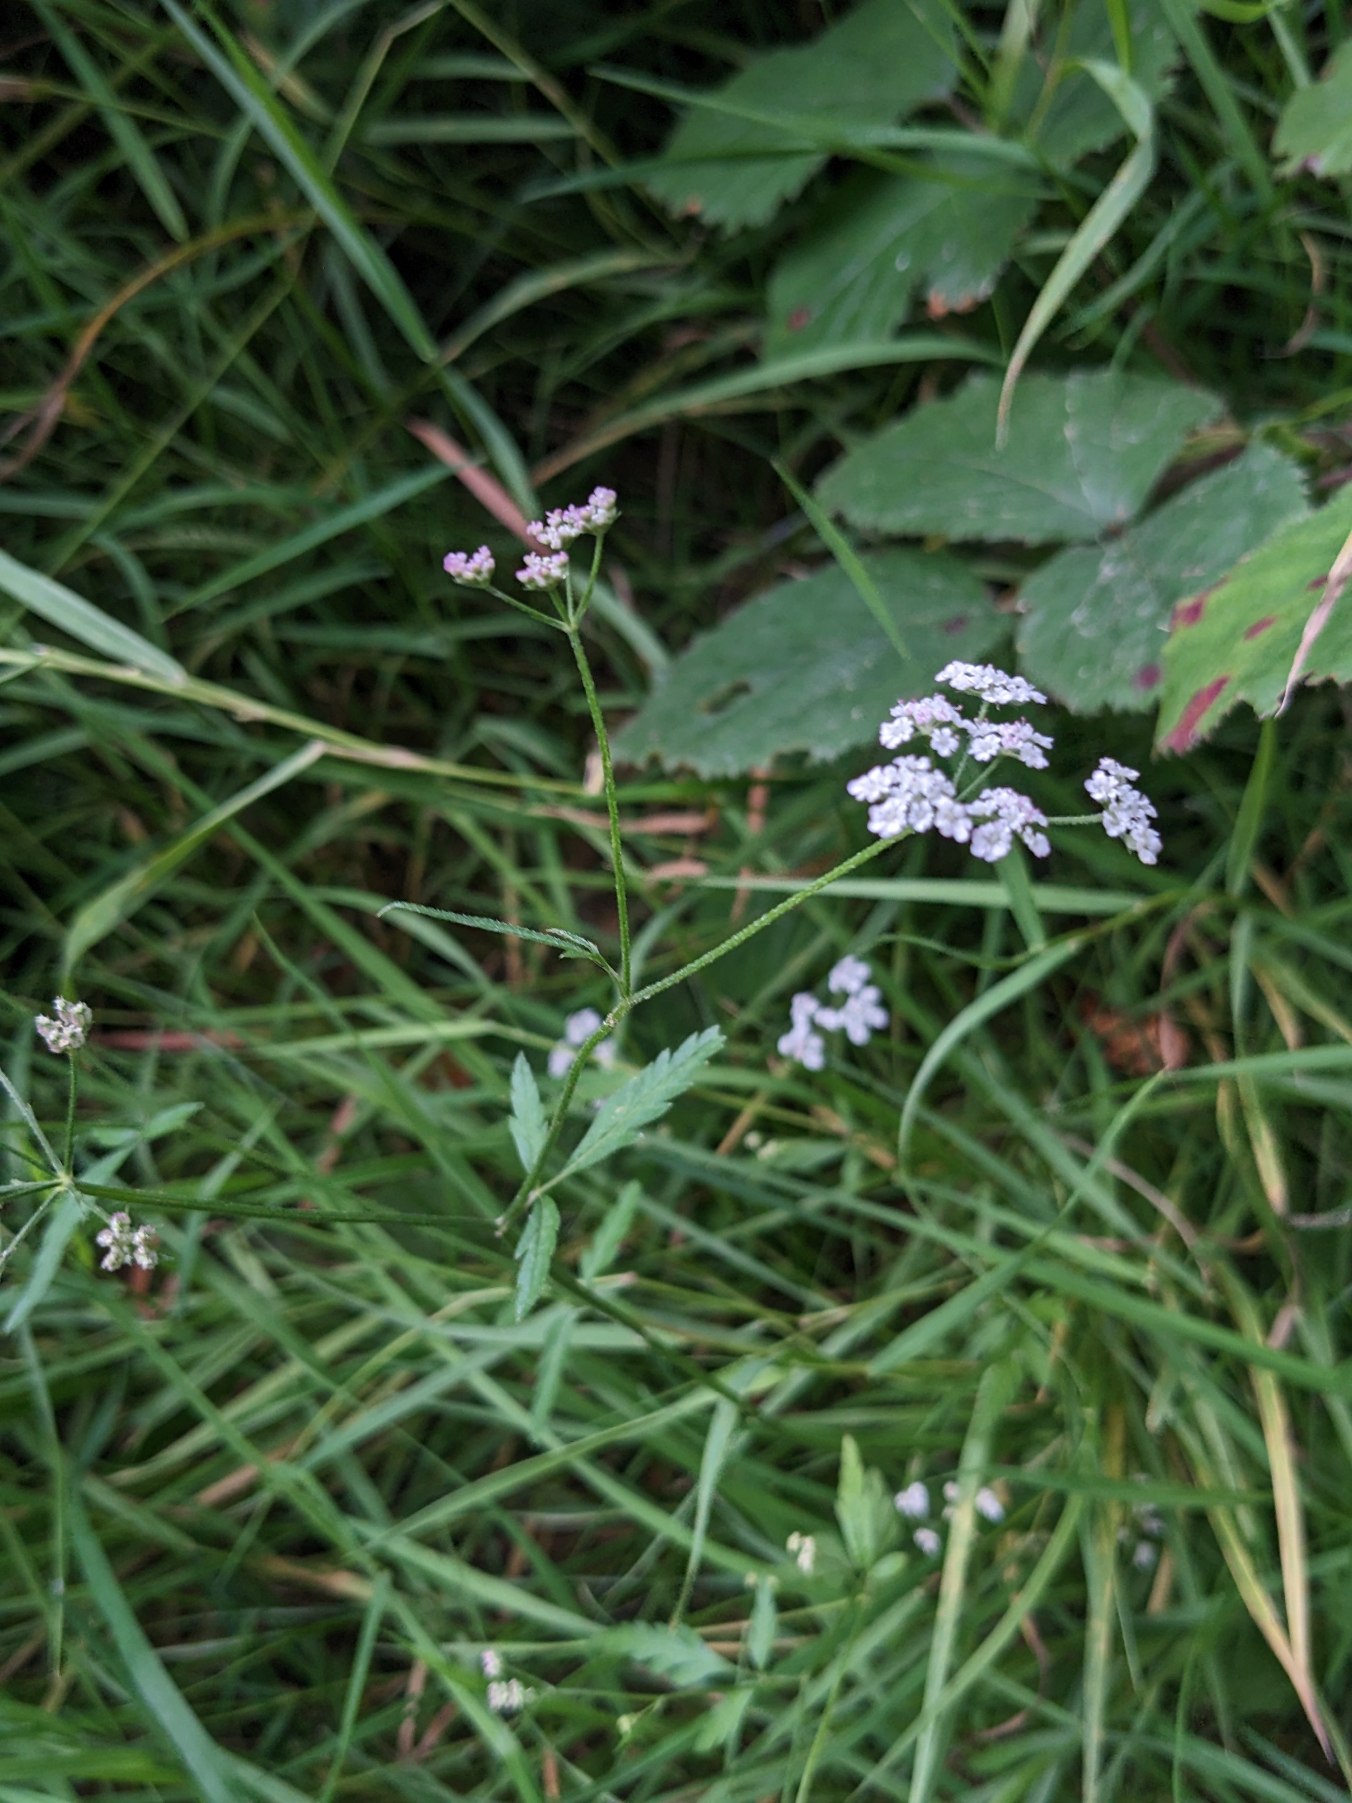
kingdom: Plantae
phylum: Tracheophyta
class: Magnoliopsida
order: Apiales
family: Apiaceae
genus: Torilis
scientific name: Torilis japonica
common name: Hvas randfrø
